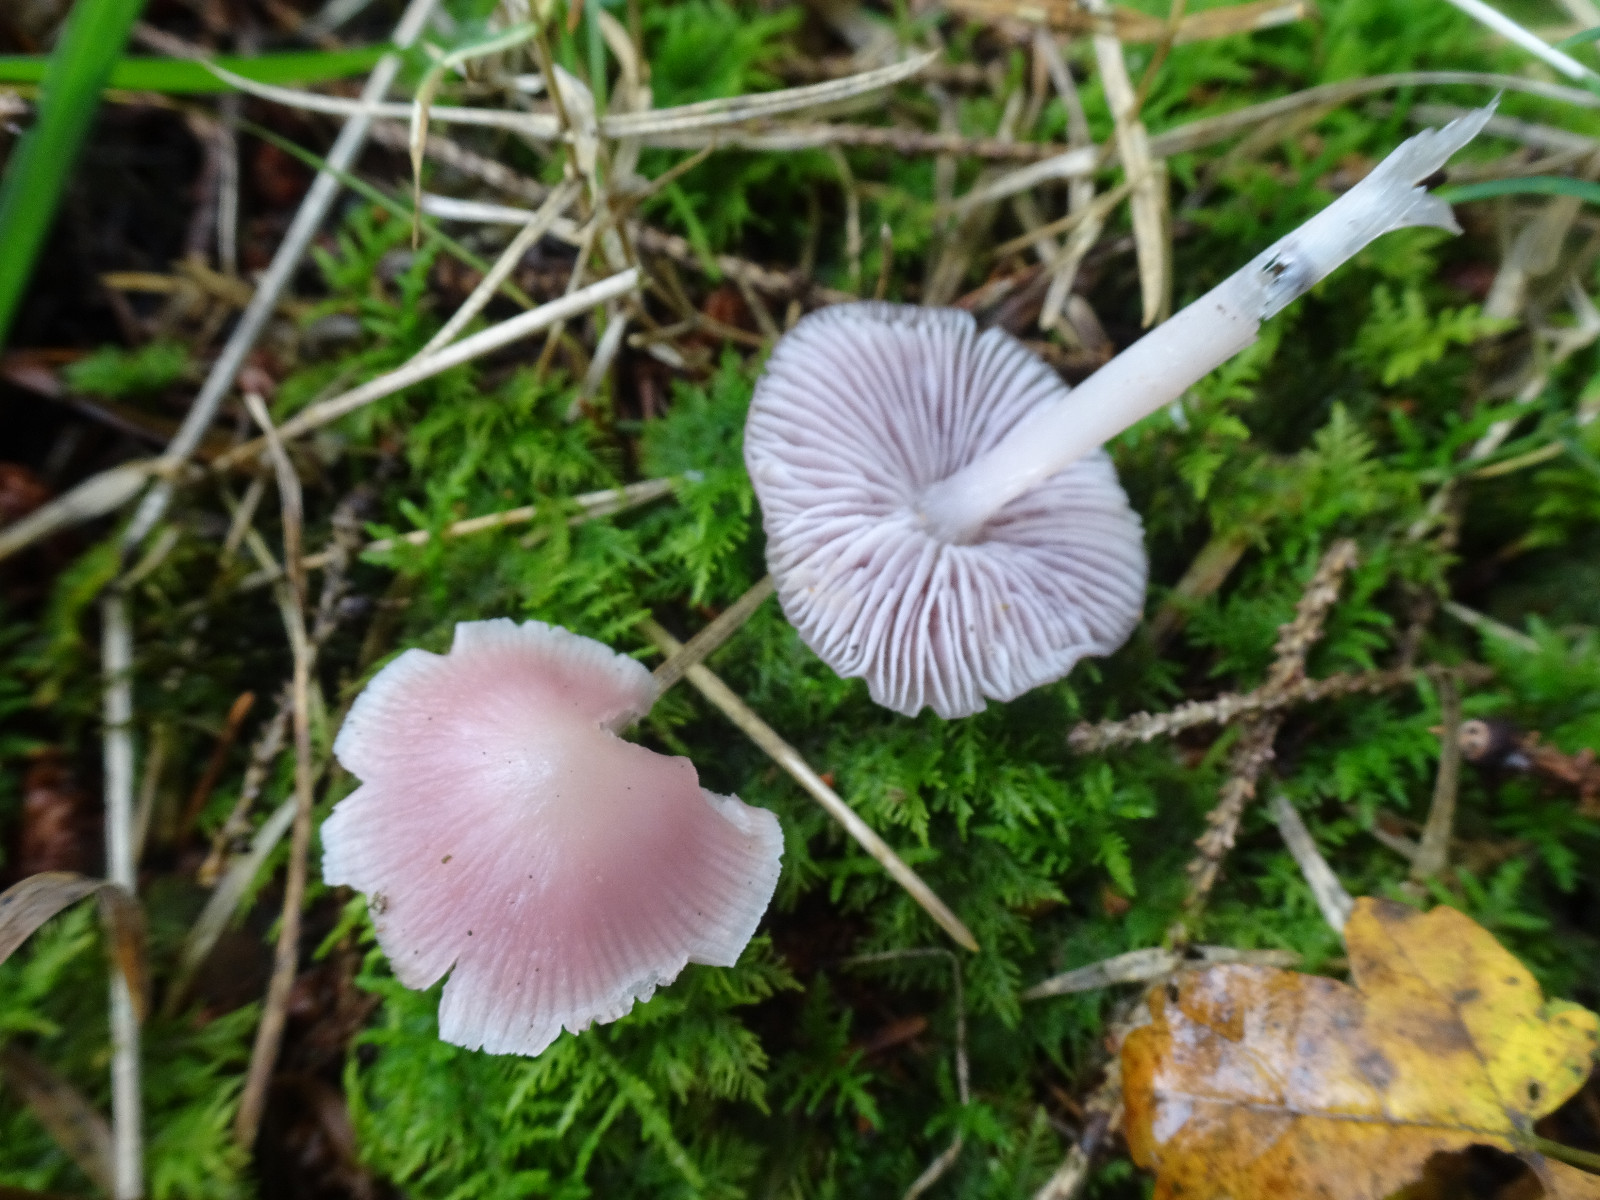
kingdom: Fungi
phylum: Basidiomycota
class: Agaricomycetes
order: Agaricales
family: Mycenaceae
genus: Mycena
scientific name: Mycena rosea
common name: rosa huesvamp
